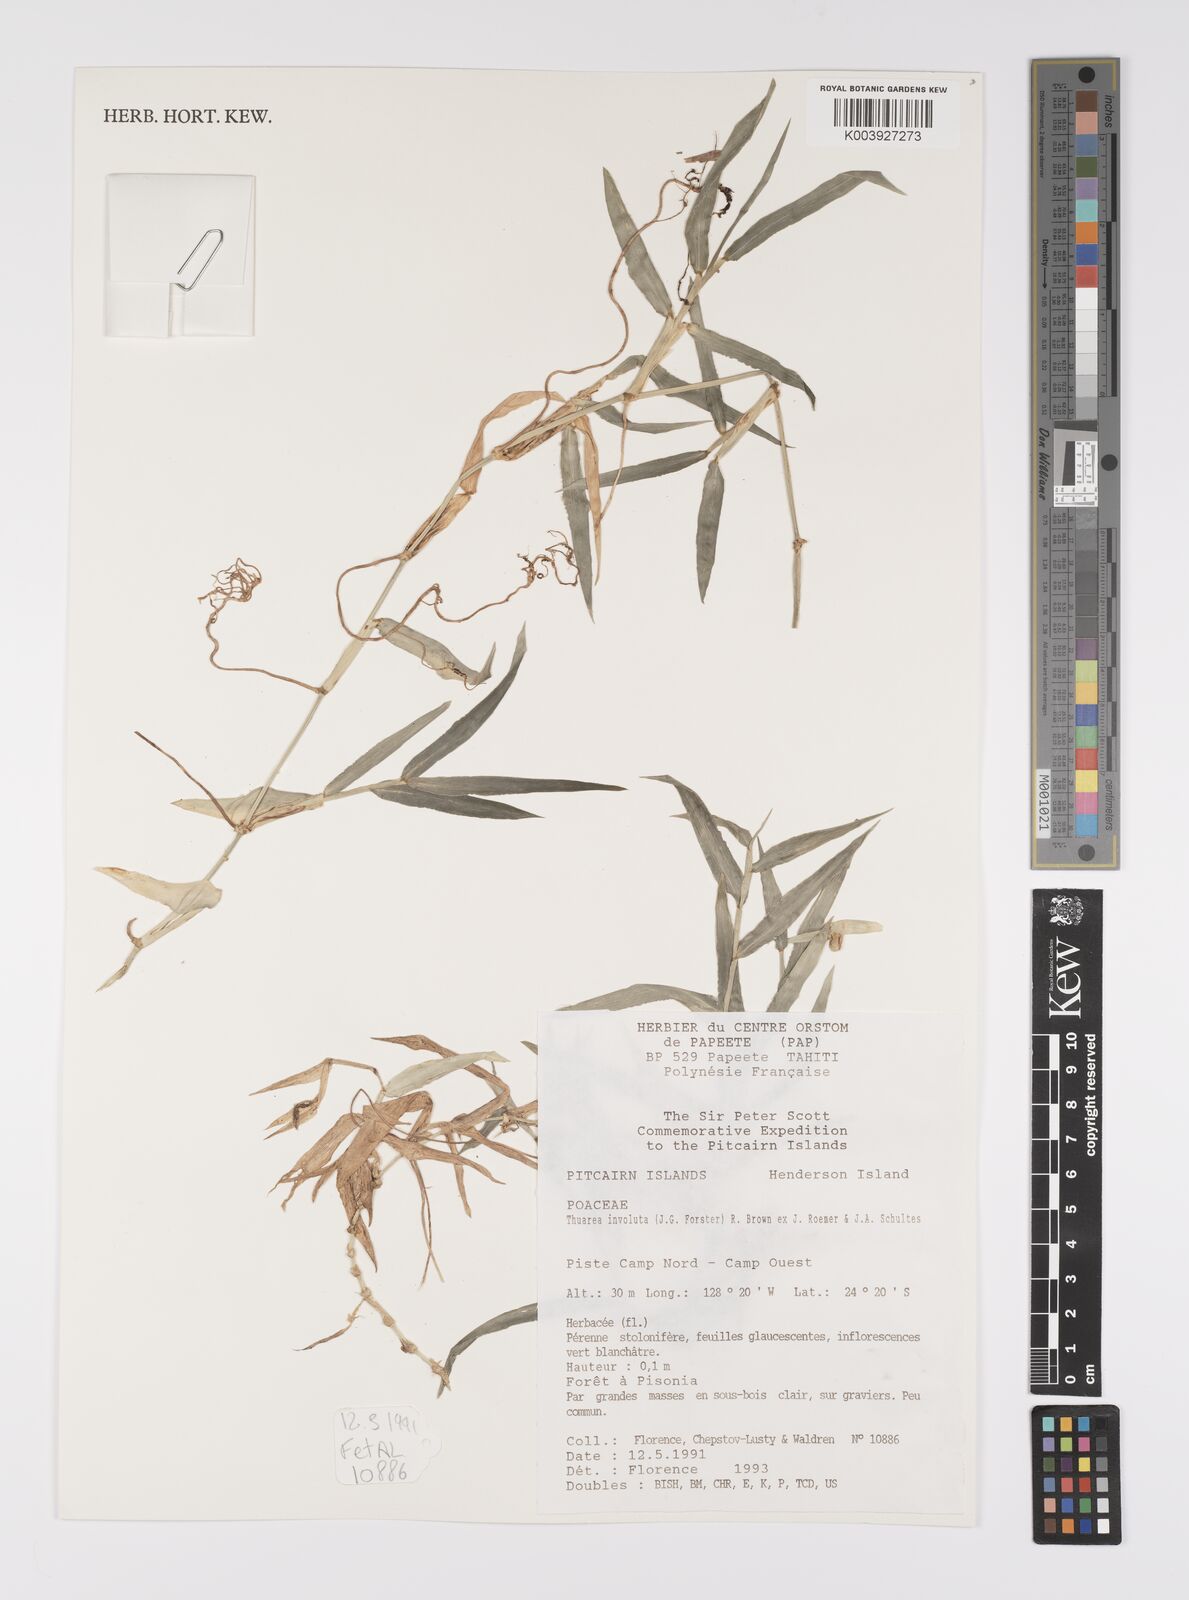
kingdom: Plantae
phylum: Tracheophyta
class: Liliopsida
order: Poales
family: Poaceae
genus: Thuarea
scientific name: Thuarea involuta
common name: Tropical beach grass
